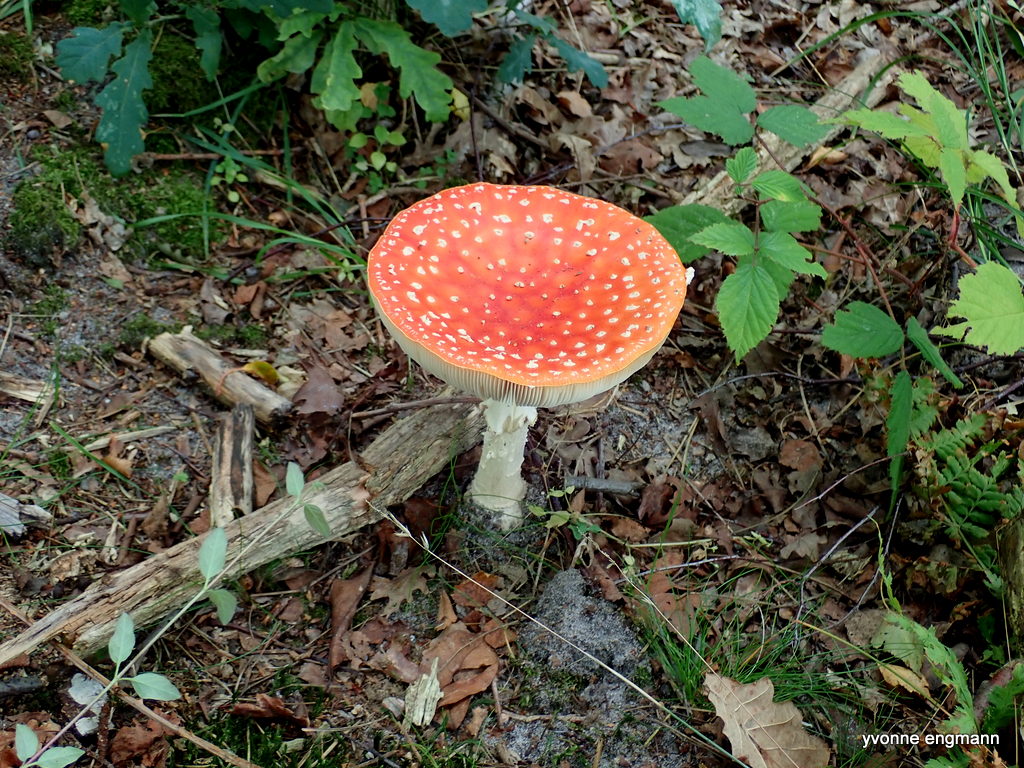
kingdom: Fungi
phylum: Basidiomycota
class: Agaricomycetes
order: Agaricales
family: Amanitaceae
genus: Amanita
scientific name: Amanita muscaria
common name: rød fluesvamp
